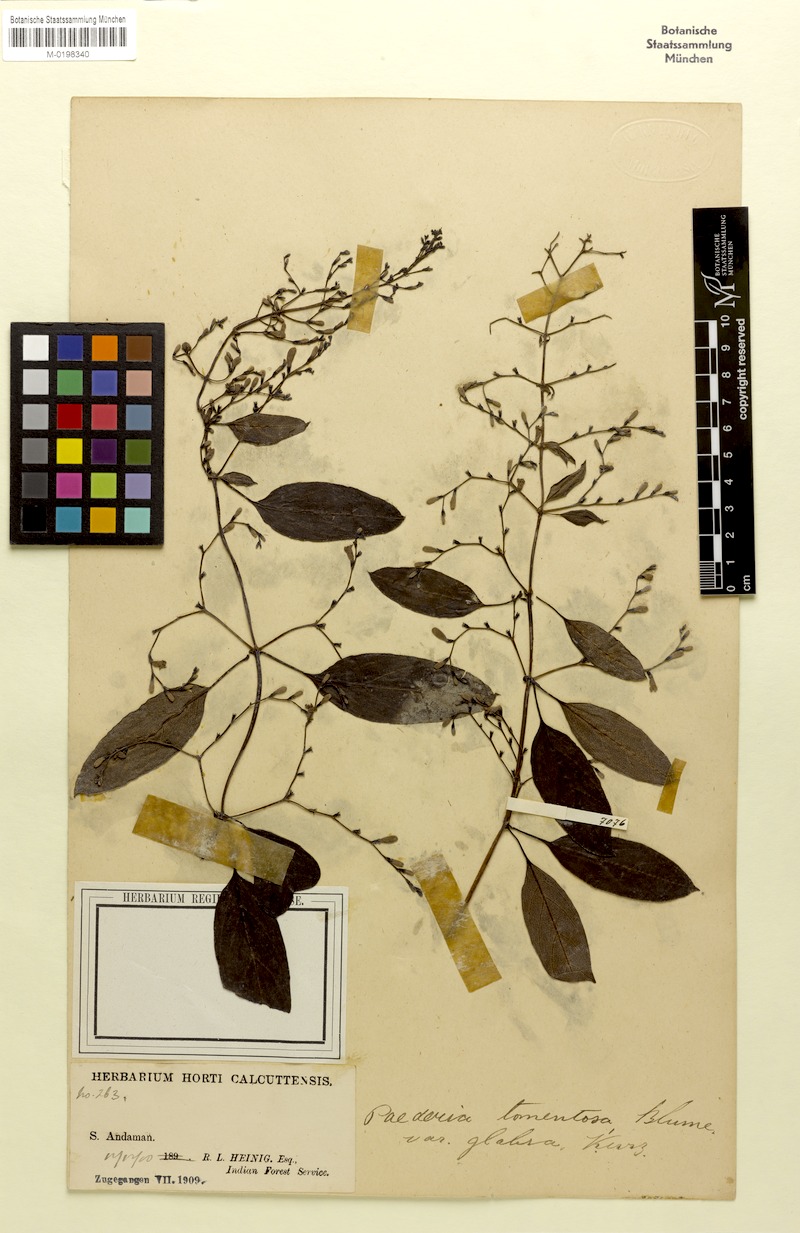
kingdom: Plantae
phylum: Tracheophyta
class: Magnoliopsida
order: Gentianales
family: Rubiaceae
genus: Paederia
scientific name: Paederia foetida
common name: Stinkvine
